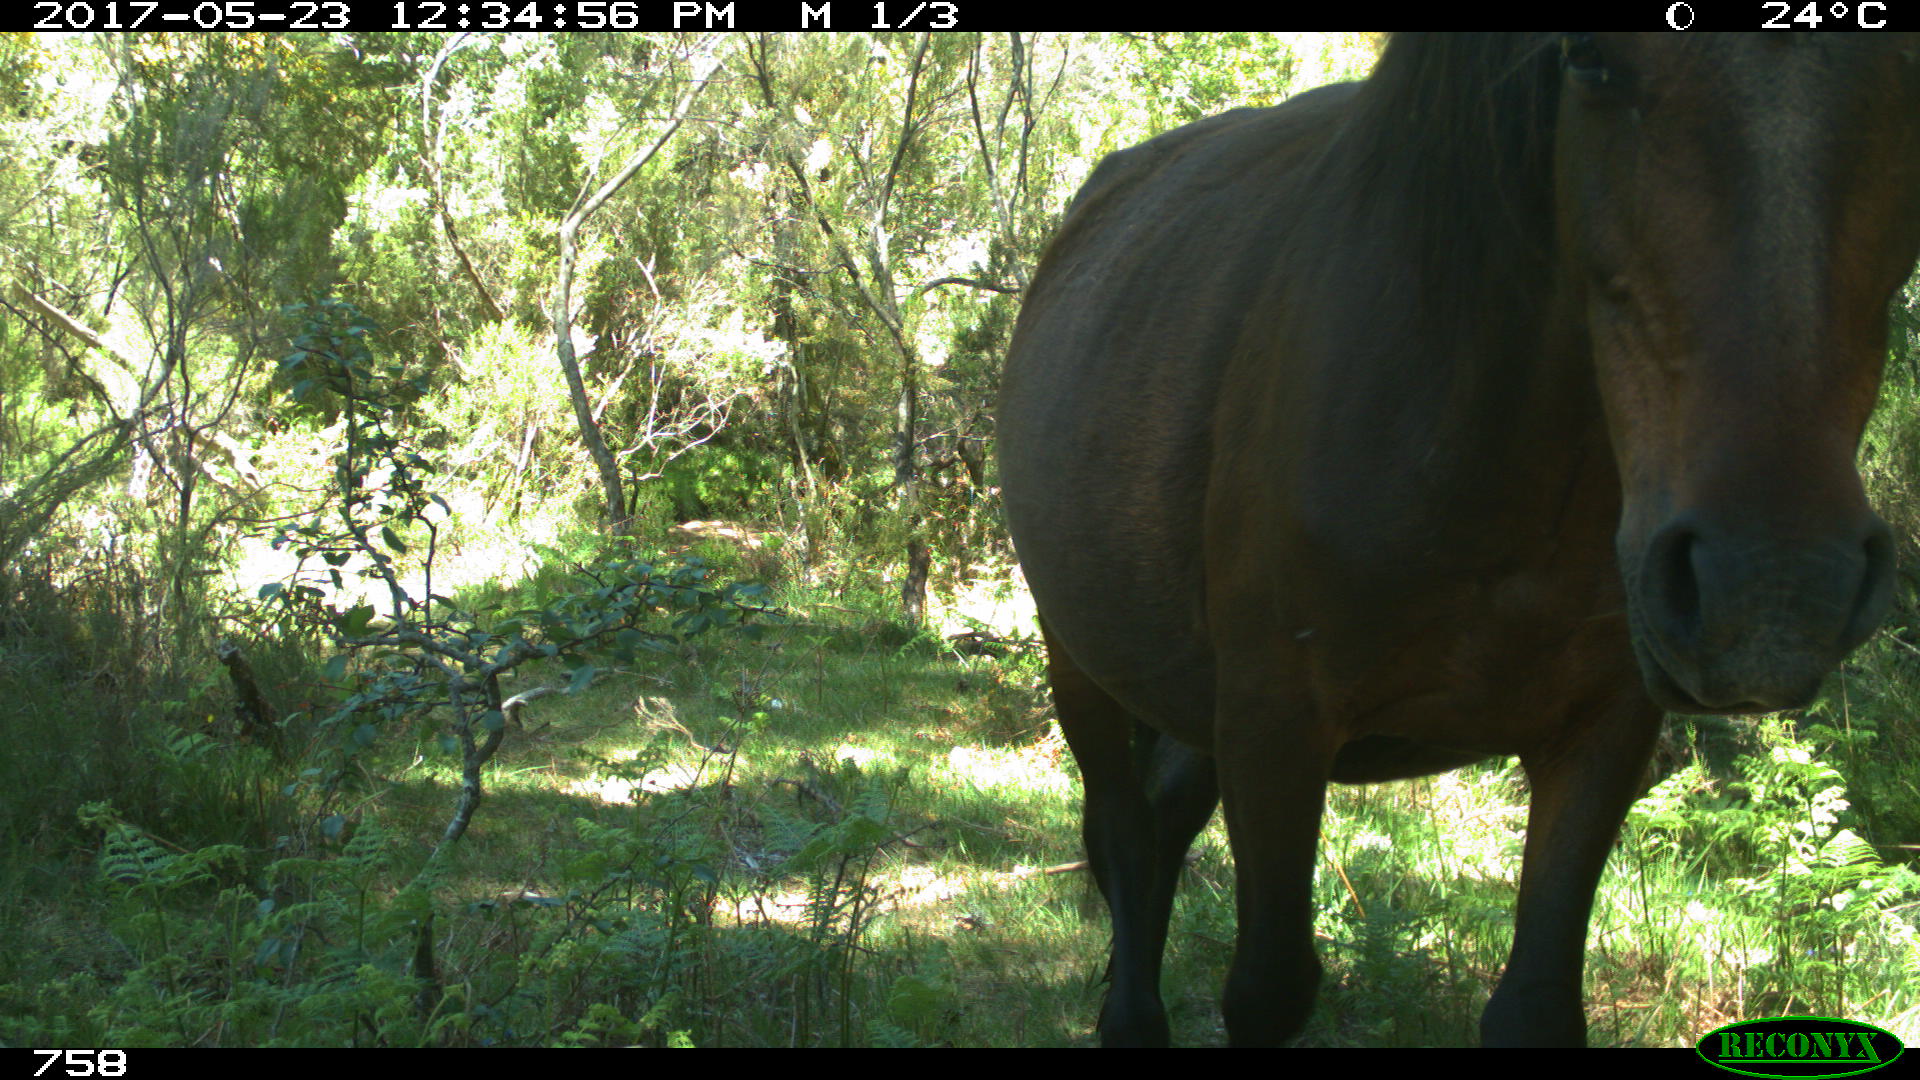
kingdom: Animalia
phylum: Chordata
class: Mammalia
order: Perissodactyla
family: Equidae
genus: Equus
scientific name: Equus caballus
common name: Horse
